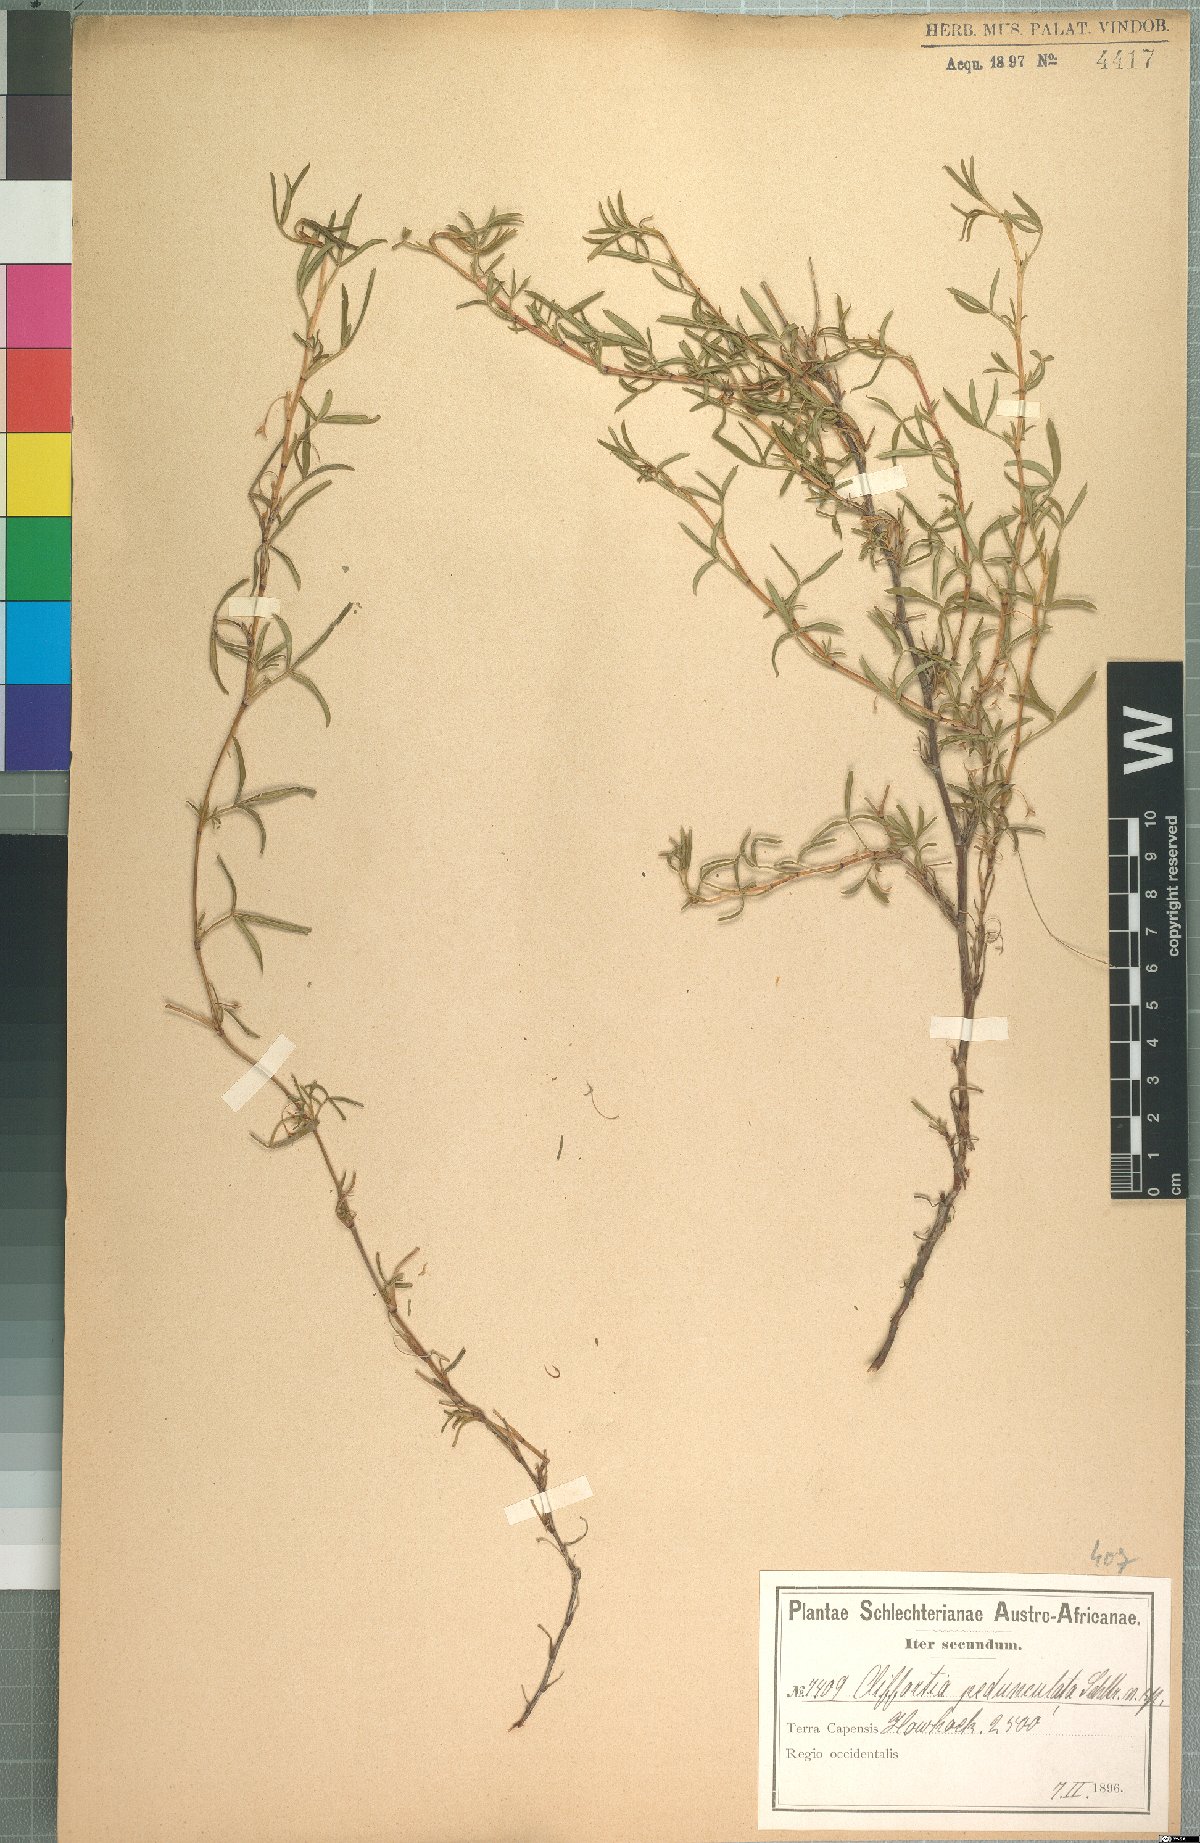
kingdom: Plantae
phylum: Tracheophyta
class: Magnoliopsida
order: Rosales
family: Rosaceae
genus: Cliffortia
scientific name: Cliffortia pedunculata
